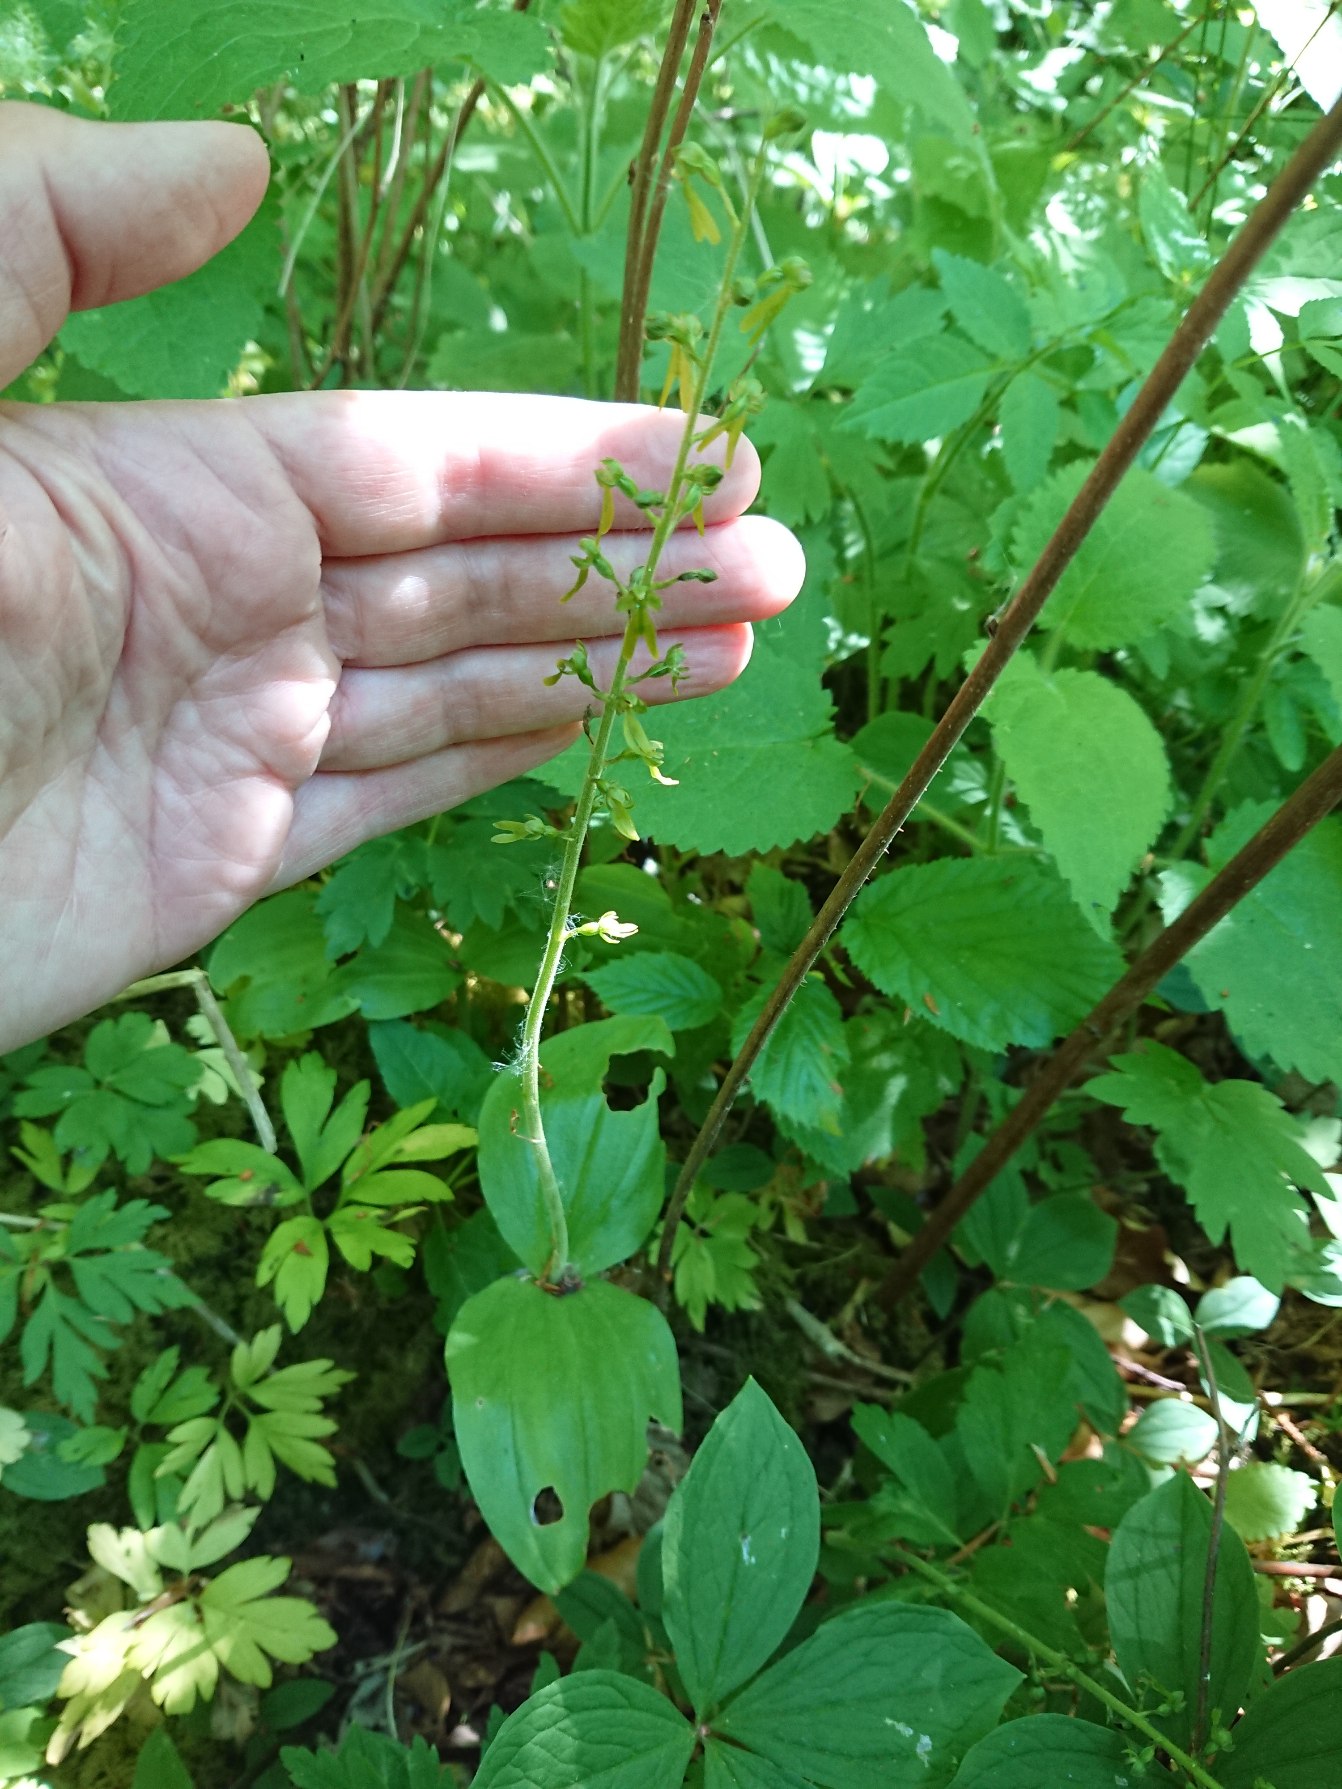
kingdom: Plantae
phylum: Tracheophyta
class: Liliopsida
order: Asparagales
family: Orchidaceae
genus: Neottia
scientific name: Neottia ovata
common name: Ægbladet fliglæbe
